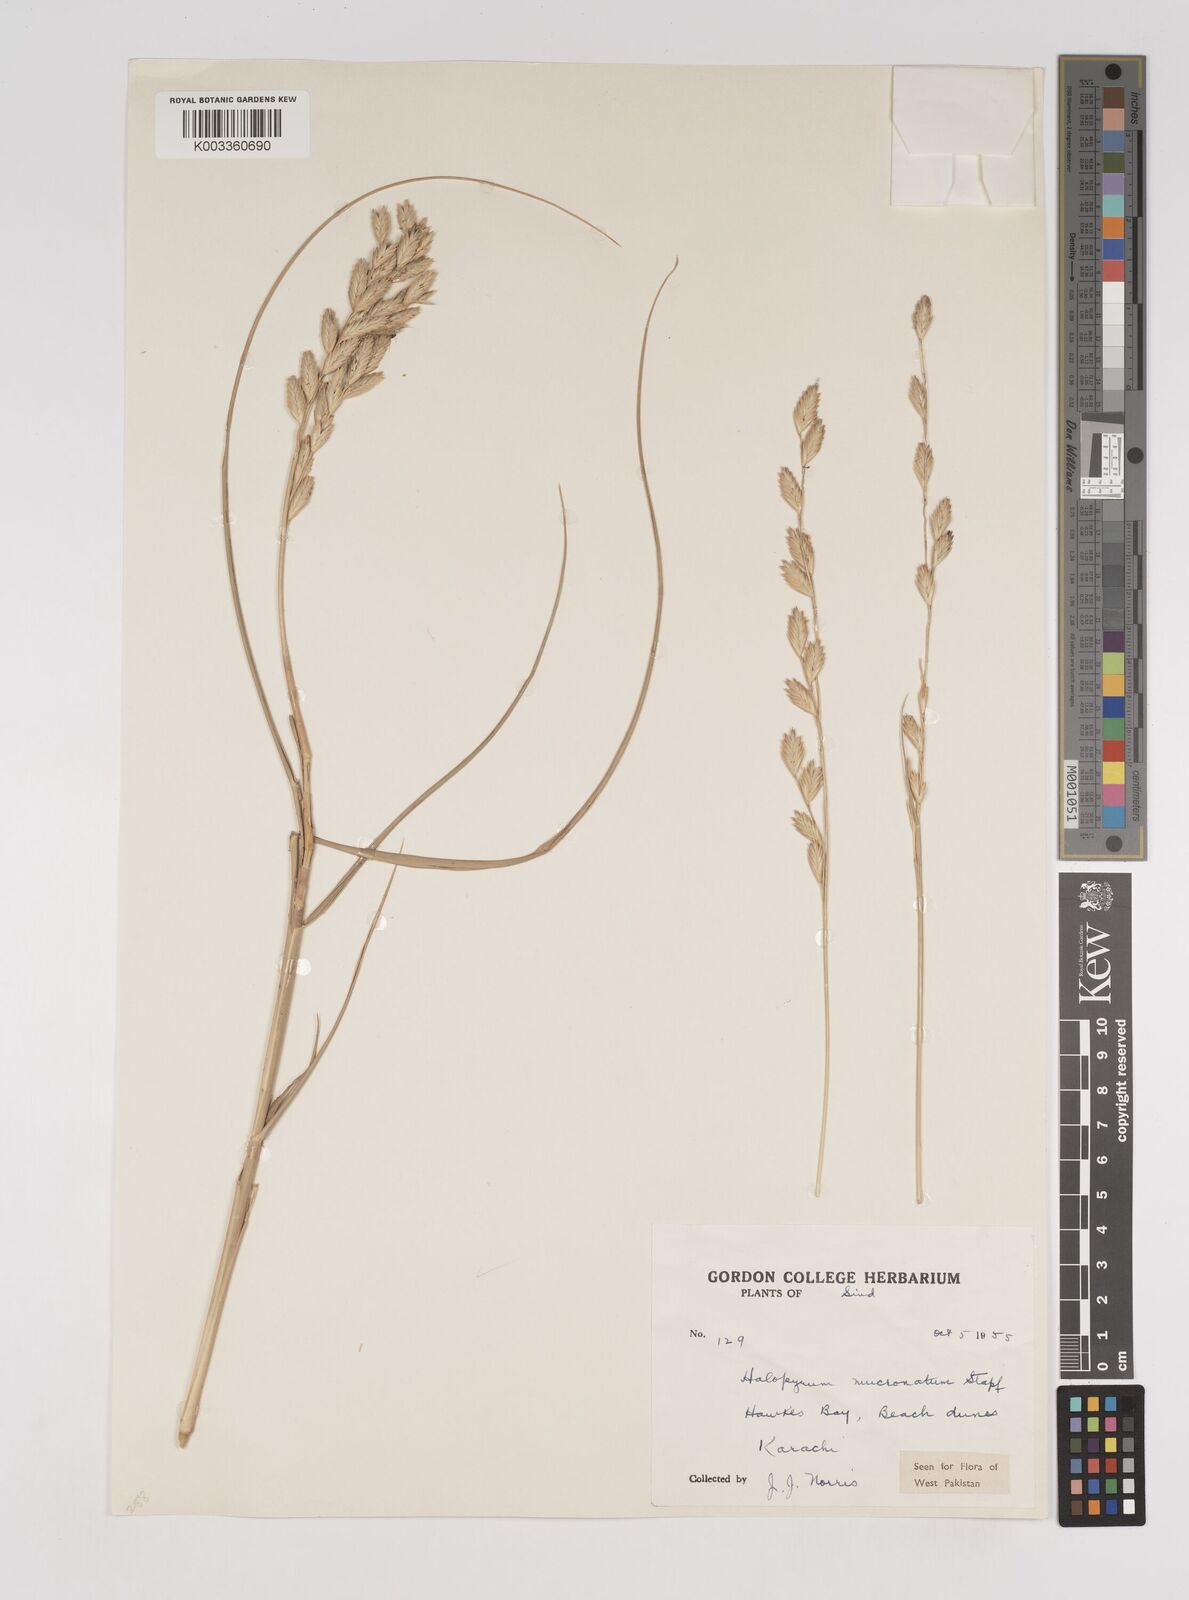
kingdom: Plantae
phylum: Tracheophyta
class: Liliopsida
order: Poales
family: Poaceae
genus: Halopyrum
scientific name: Halopyrum mucronatum
